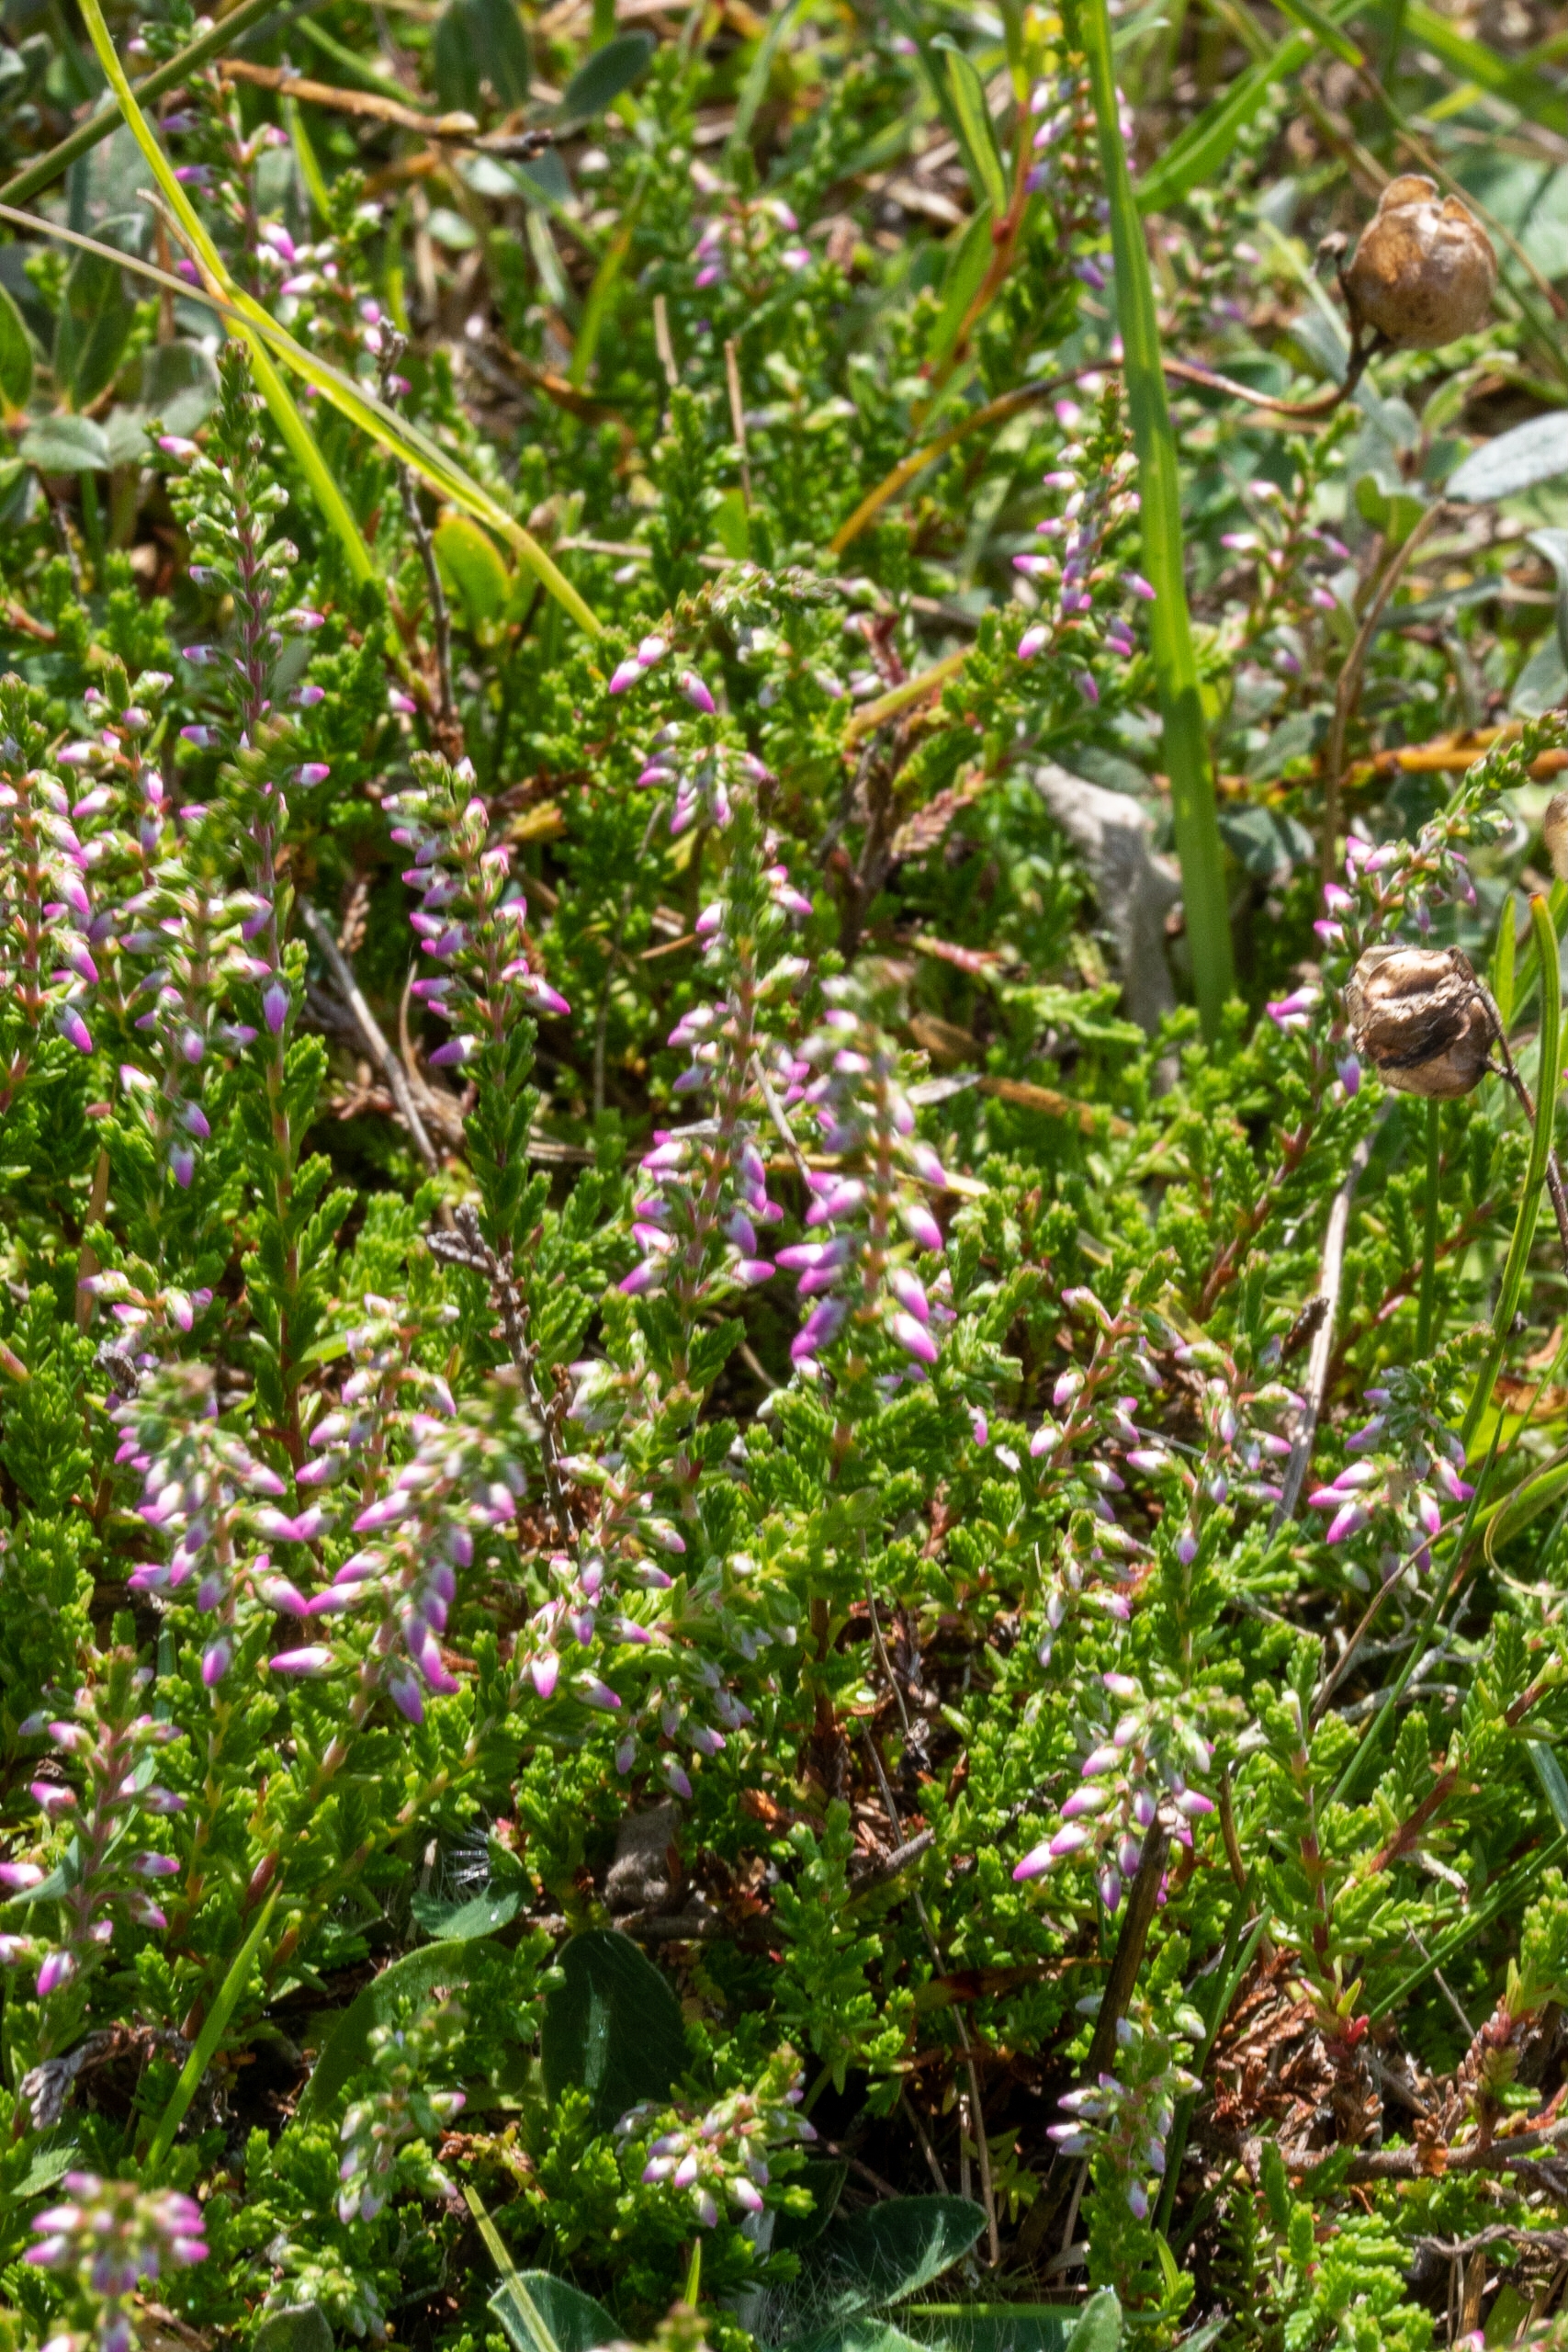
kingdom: Plantae
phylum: Tracheophyta
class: Magnoliopsida
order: Ericales
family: Ericaceae
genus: Calluna
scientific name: Calluna vulgaris
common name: Hedelyng
